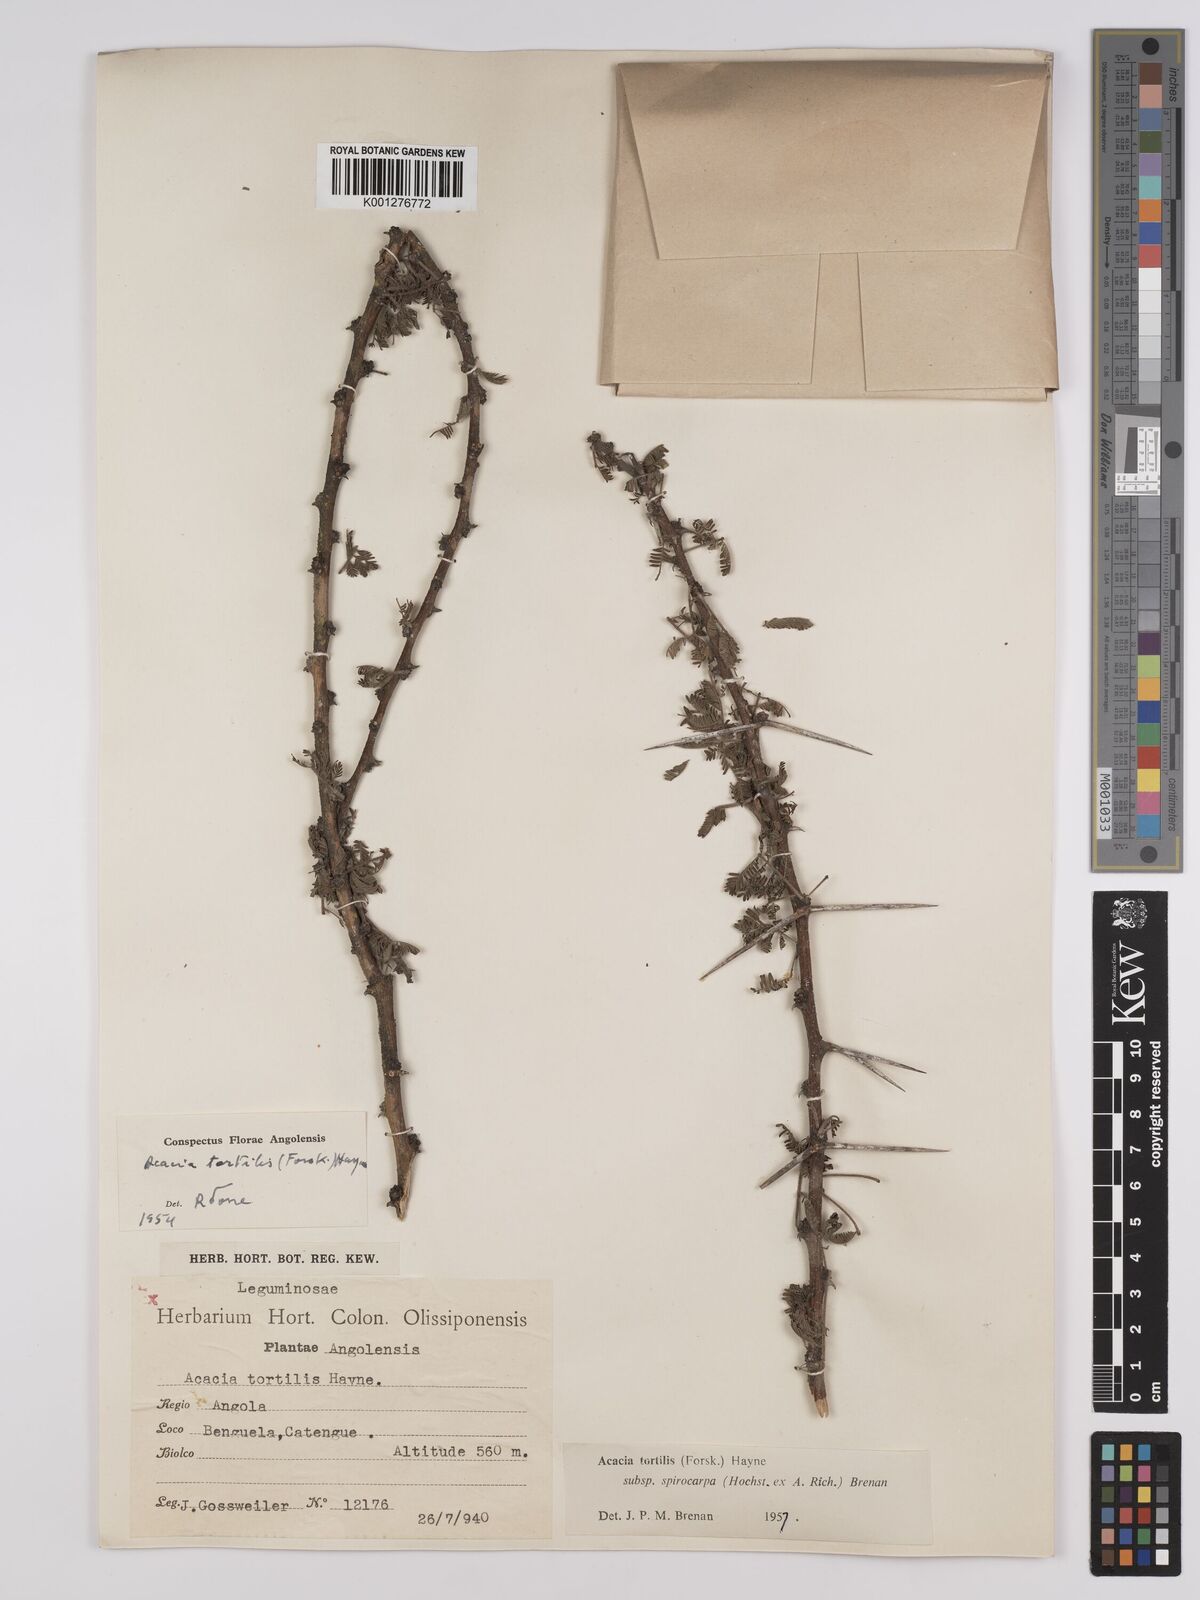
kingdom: Plantae
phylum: Tracheophyta
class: Magnoliopsida
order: Fabales
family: Fabaceae
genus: Vachellia
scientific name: Vachellia tortilis
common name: Umbrella thorn acacia
